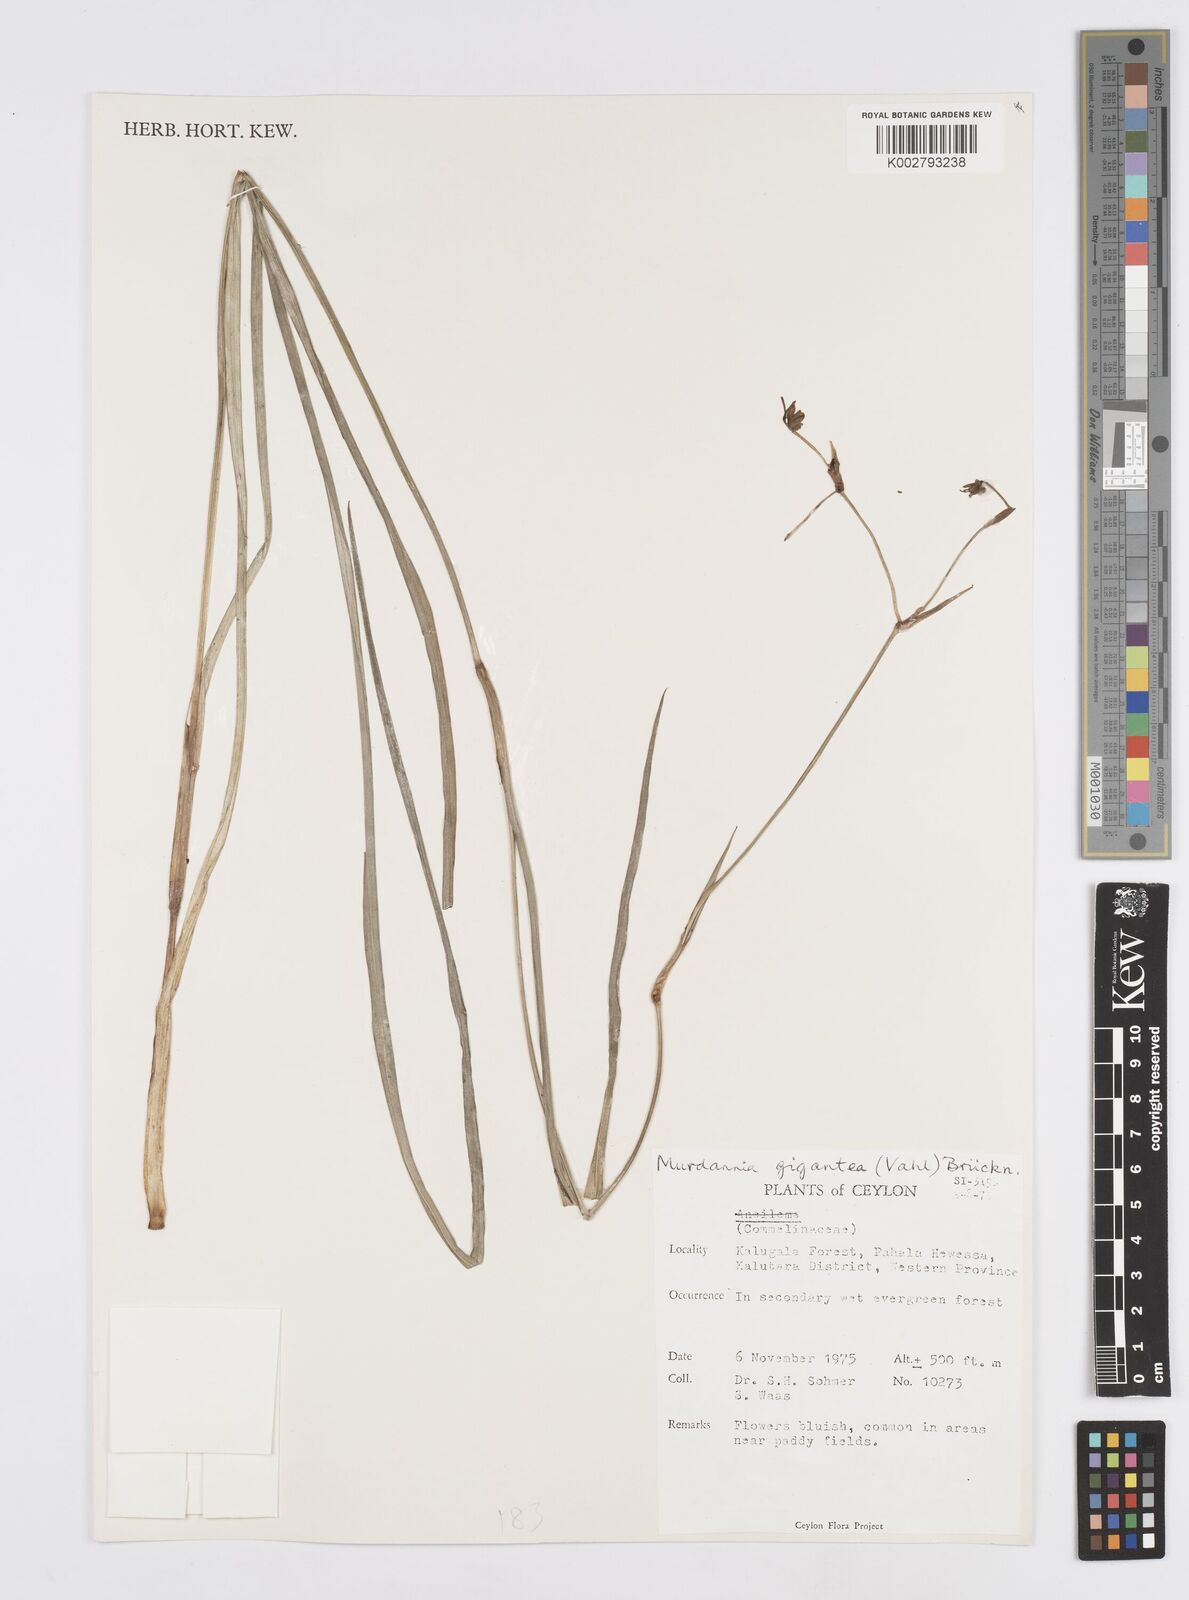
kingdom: Plantae
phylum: Tracheophyta
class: Liliopsida
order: Commelinales
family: Commelinaceae
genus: Murdannia
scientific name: Murdannia gigantea
